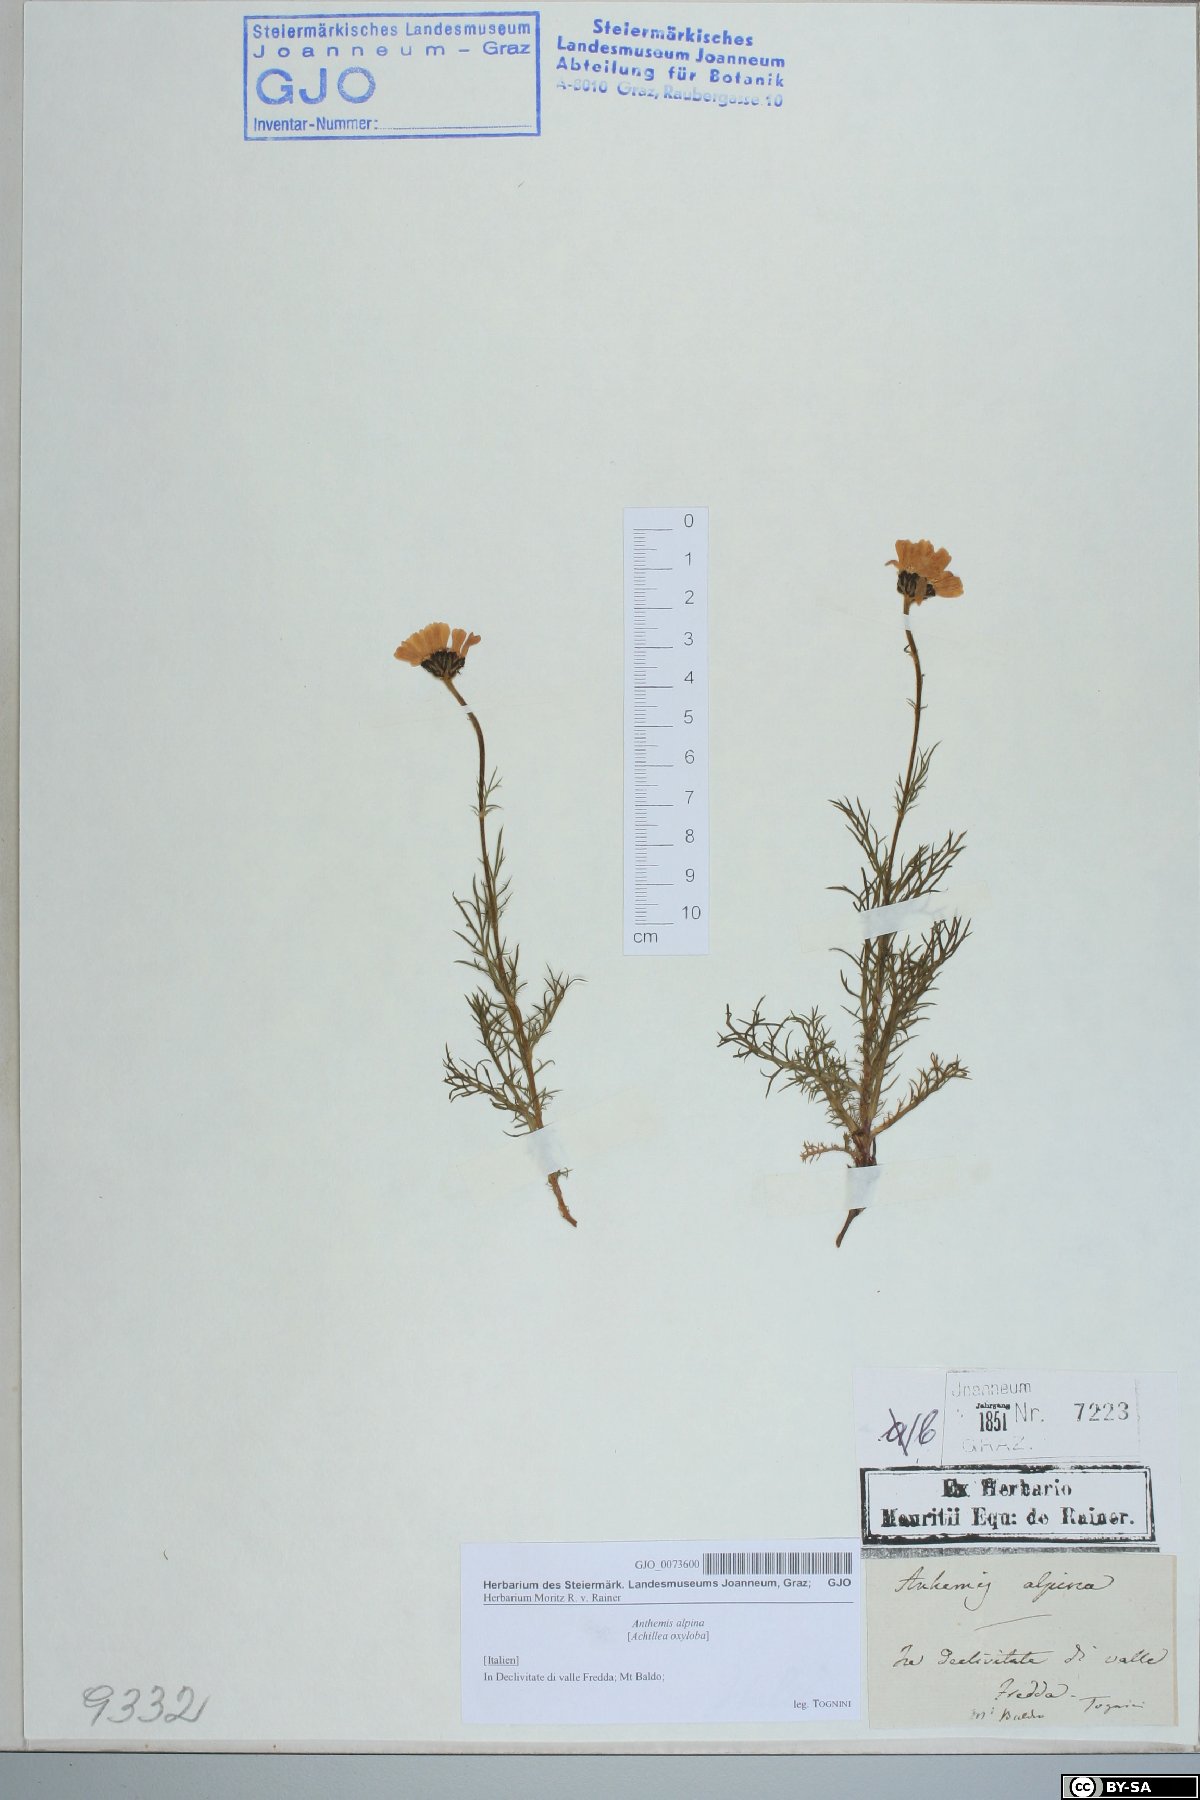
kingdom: Plantae
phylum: Tracheophyta
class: Magnoliopsida
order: Asterales
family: Asteraceae
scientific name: Asteraceae
